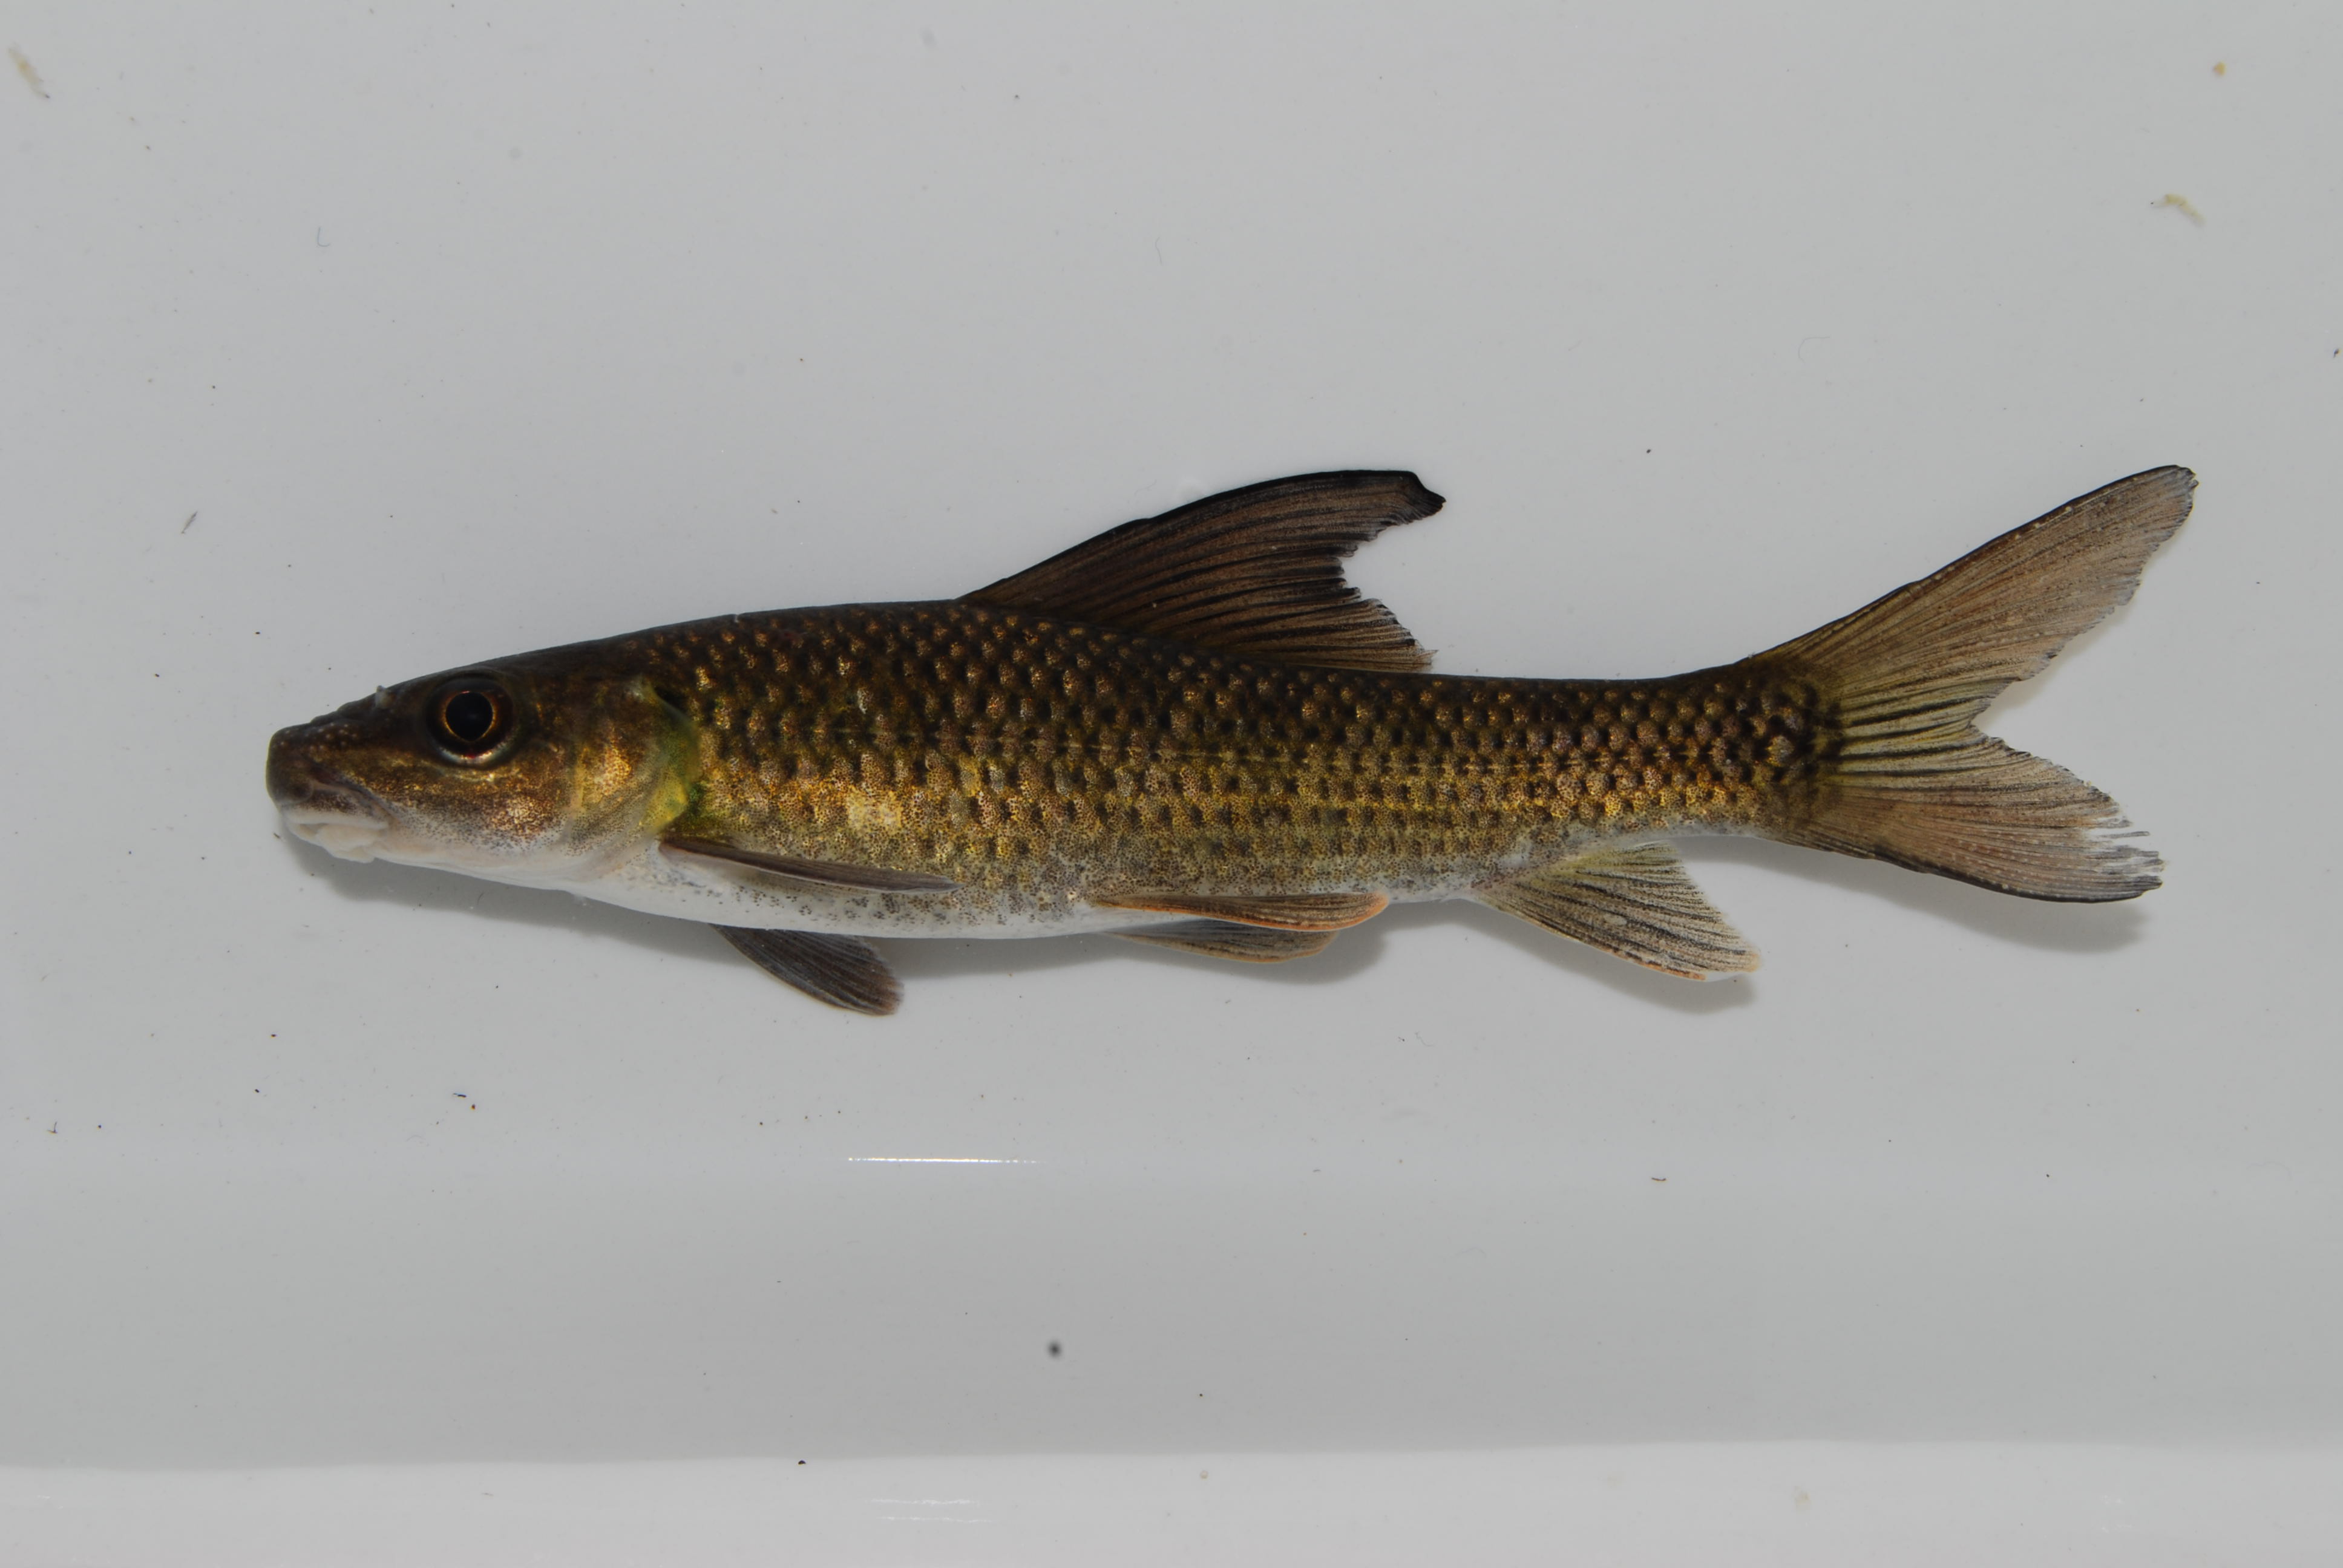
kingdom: Animalia
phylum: Chordata
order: Cypriniformes
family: Cyprinidae
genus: Labeo
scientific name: Labeo lunatus
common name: Upper zambezi labeo
